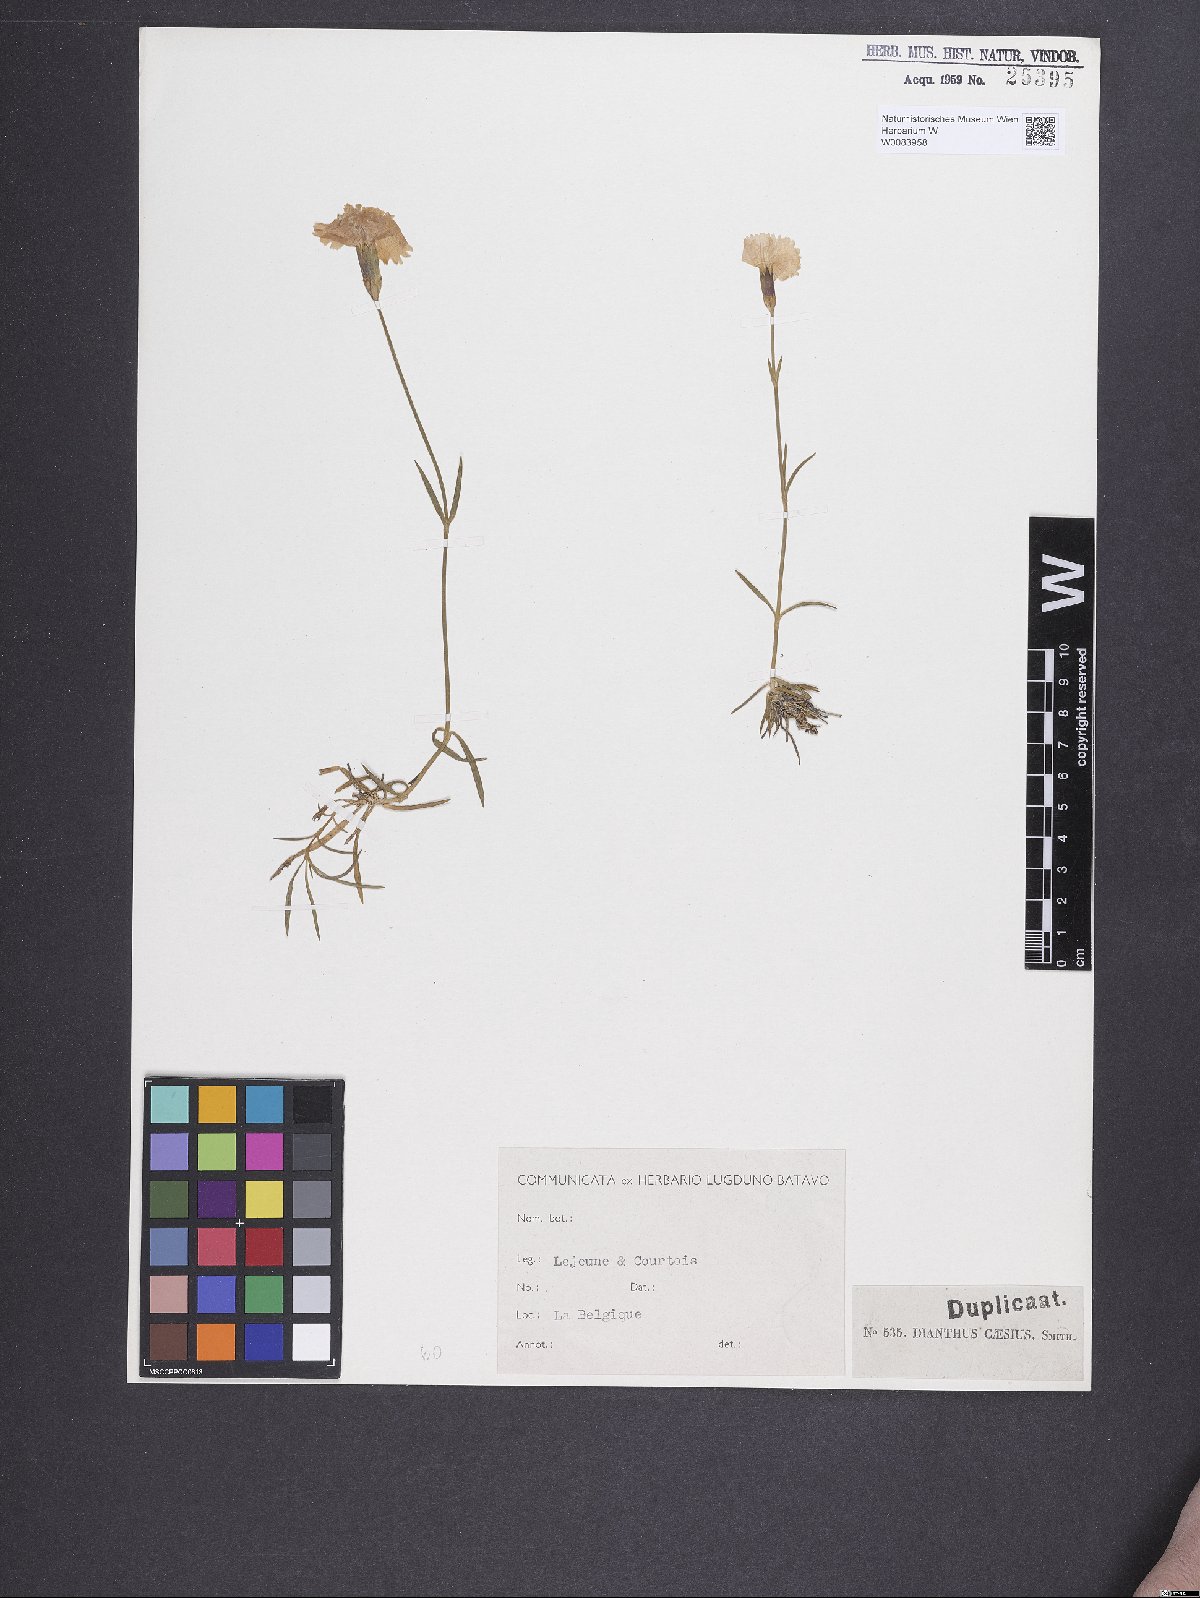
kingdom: Plantae
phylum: Tracheophyta
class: Magnoliopsida
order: Caryophyllales
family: Caryophyllaceae
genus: Dianthus
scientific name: Dianthus gratianopolitanus
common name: Cheddar pink
